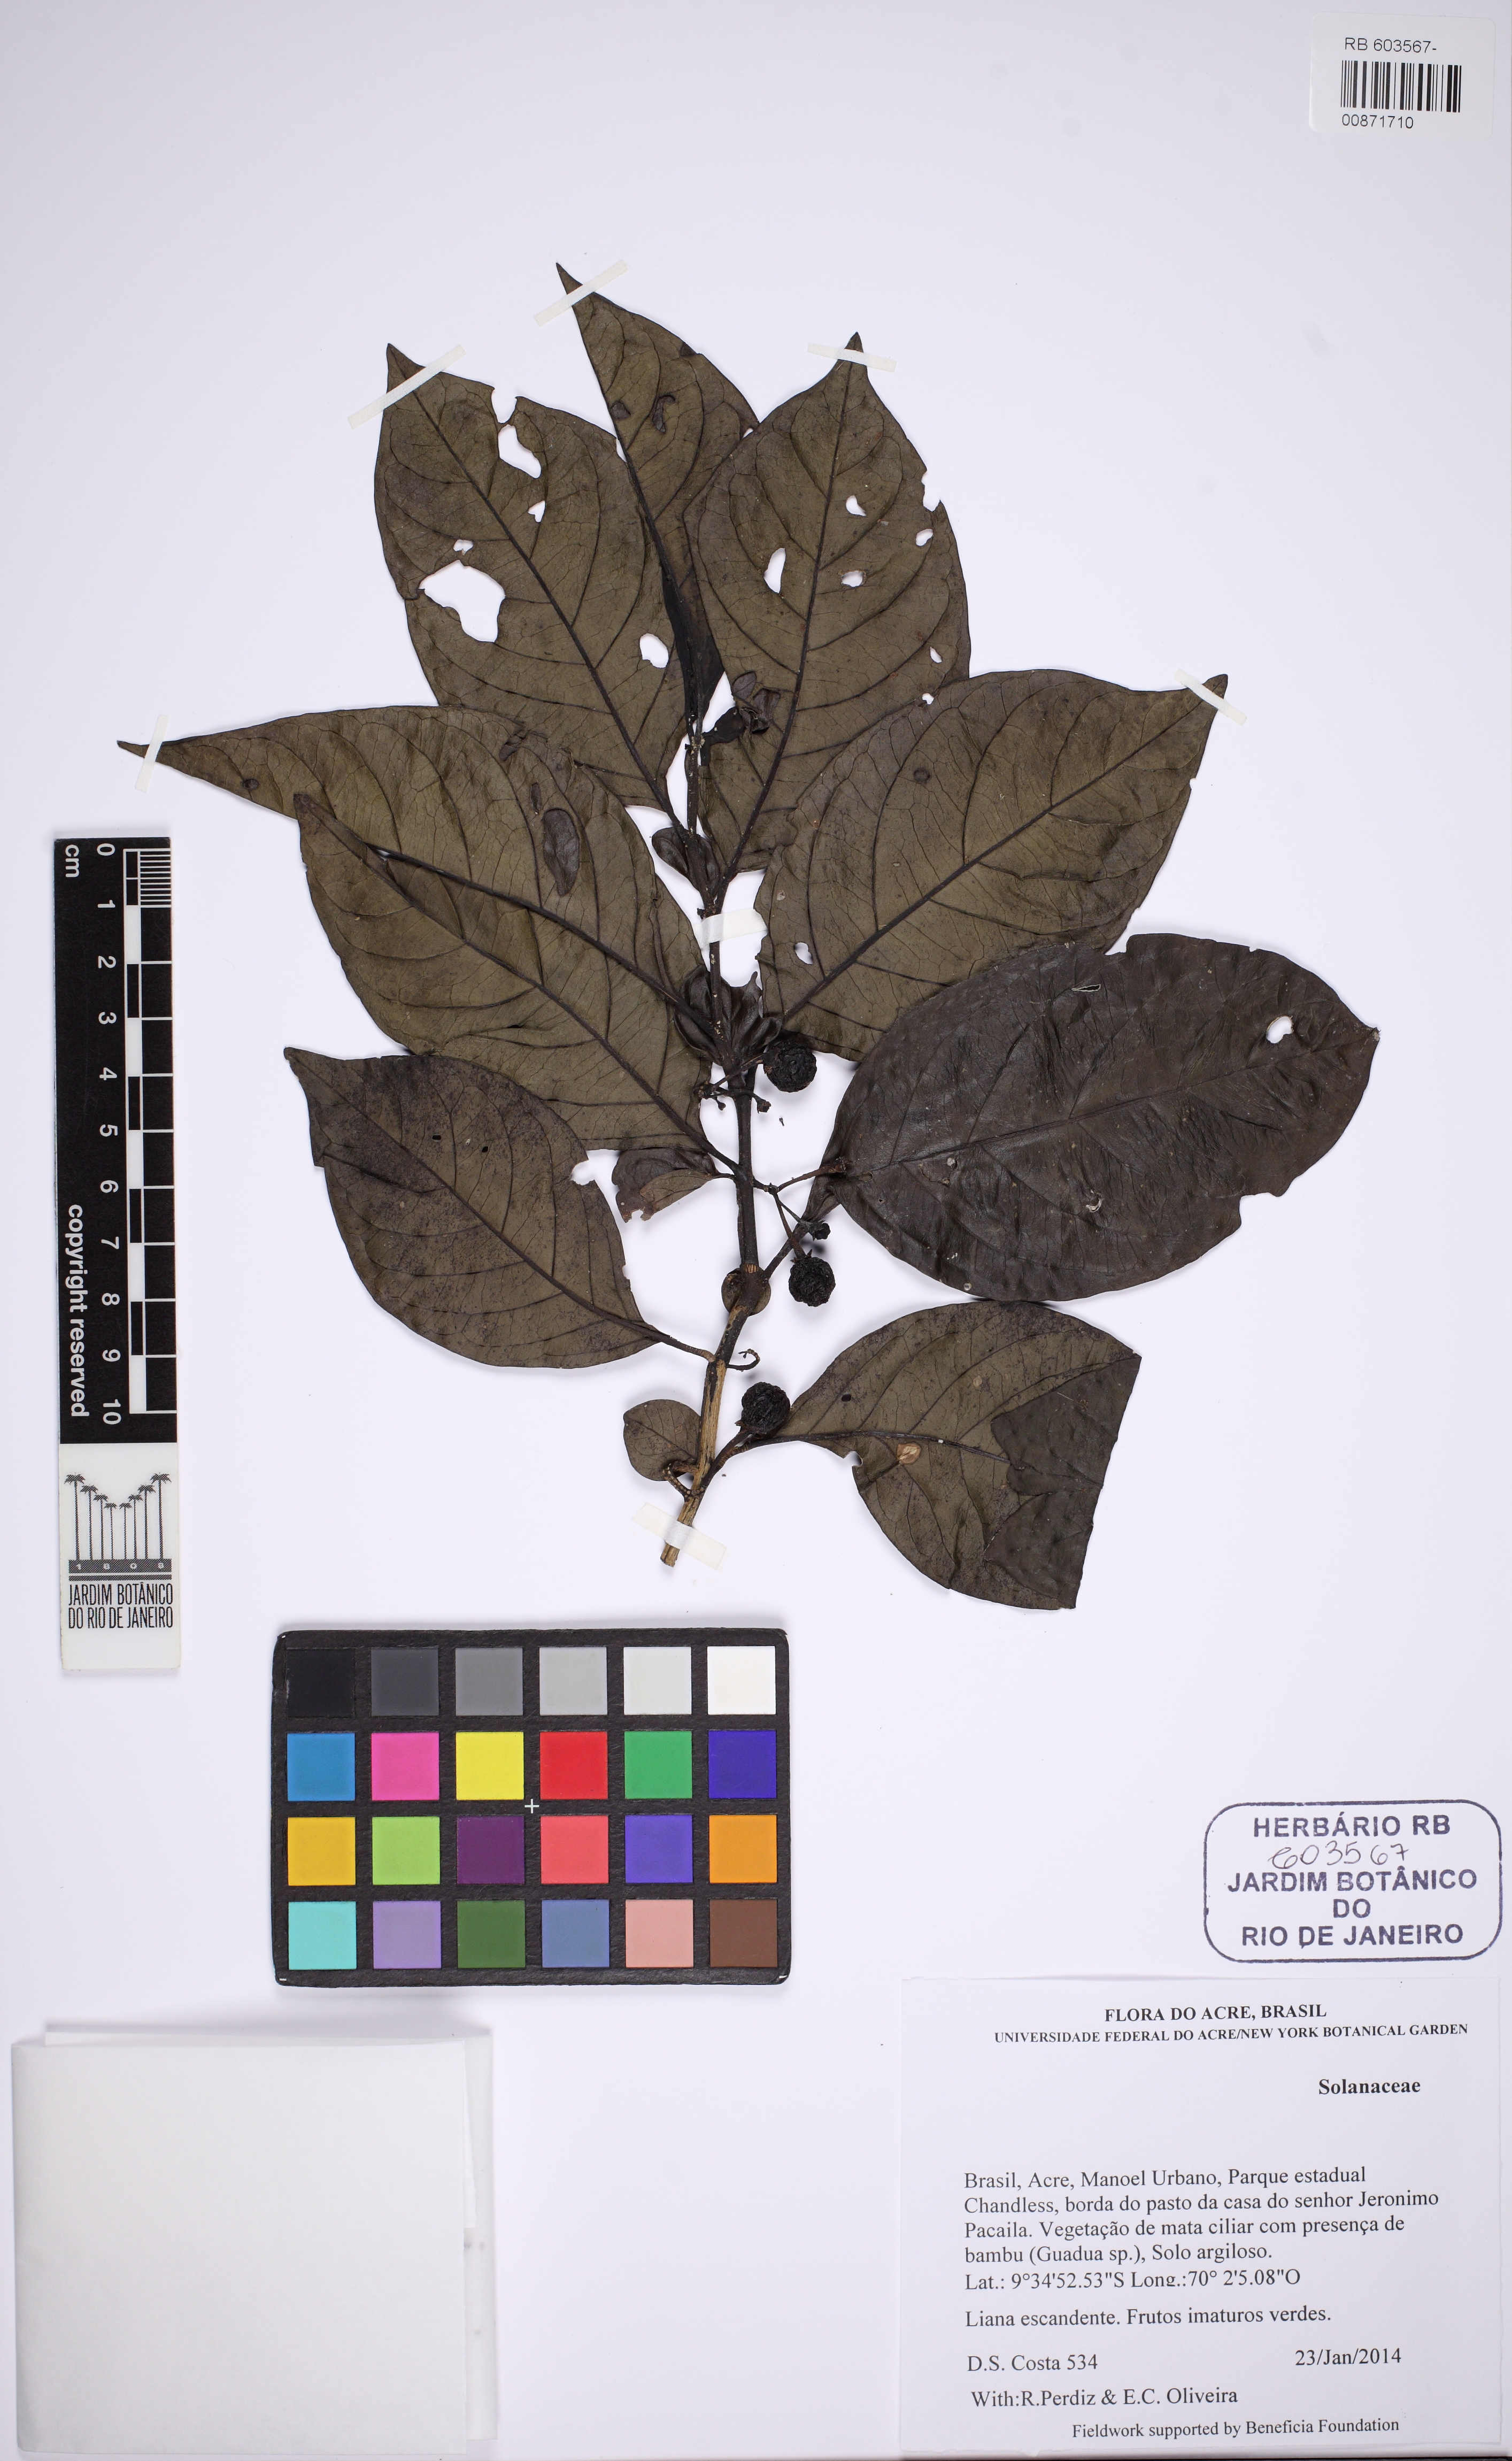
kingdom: Plantae
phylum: Tracheophyta
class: Magnoliopsida
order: Solanales
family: Solanaceae
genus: Solanum
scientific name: Solanum nudum
